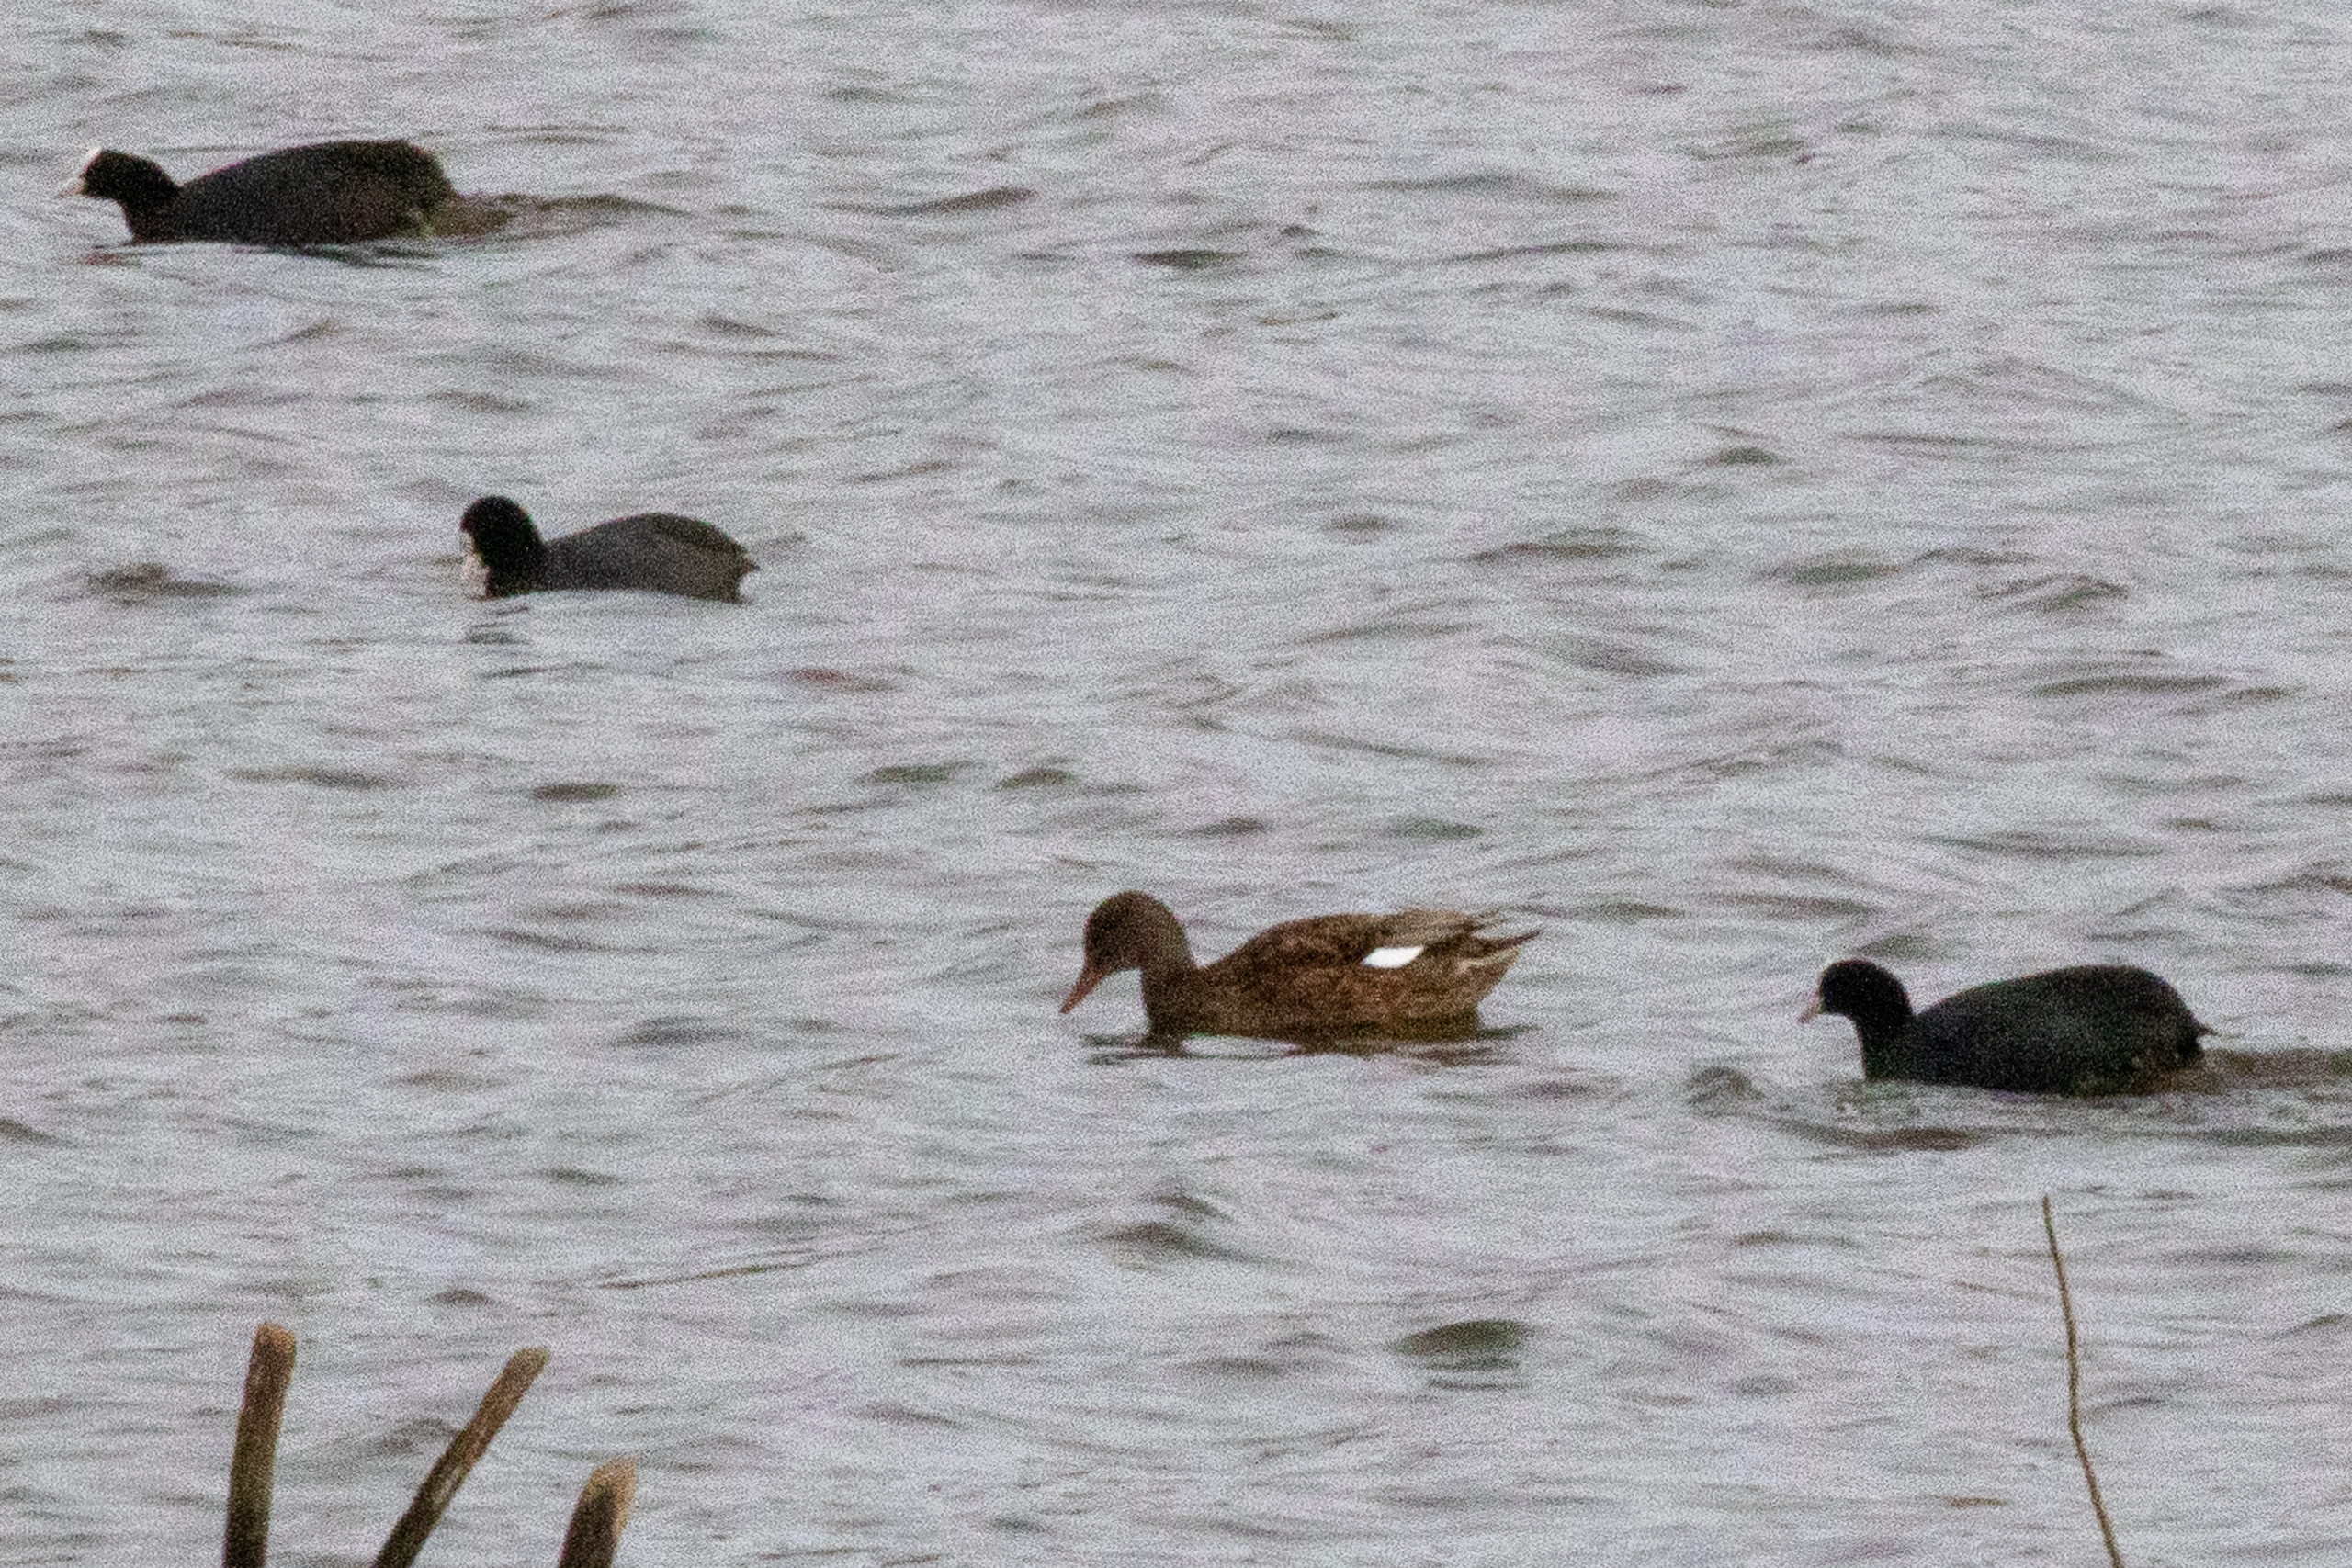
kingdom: Animalia
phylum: Chordata
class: Aves
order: Anseriformes
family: Anatidae
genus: Mareca
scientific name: Mareca strepera
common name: Knarand
